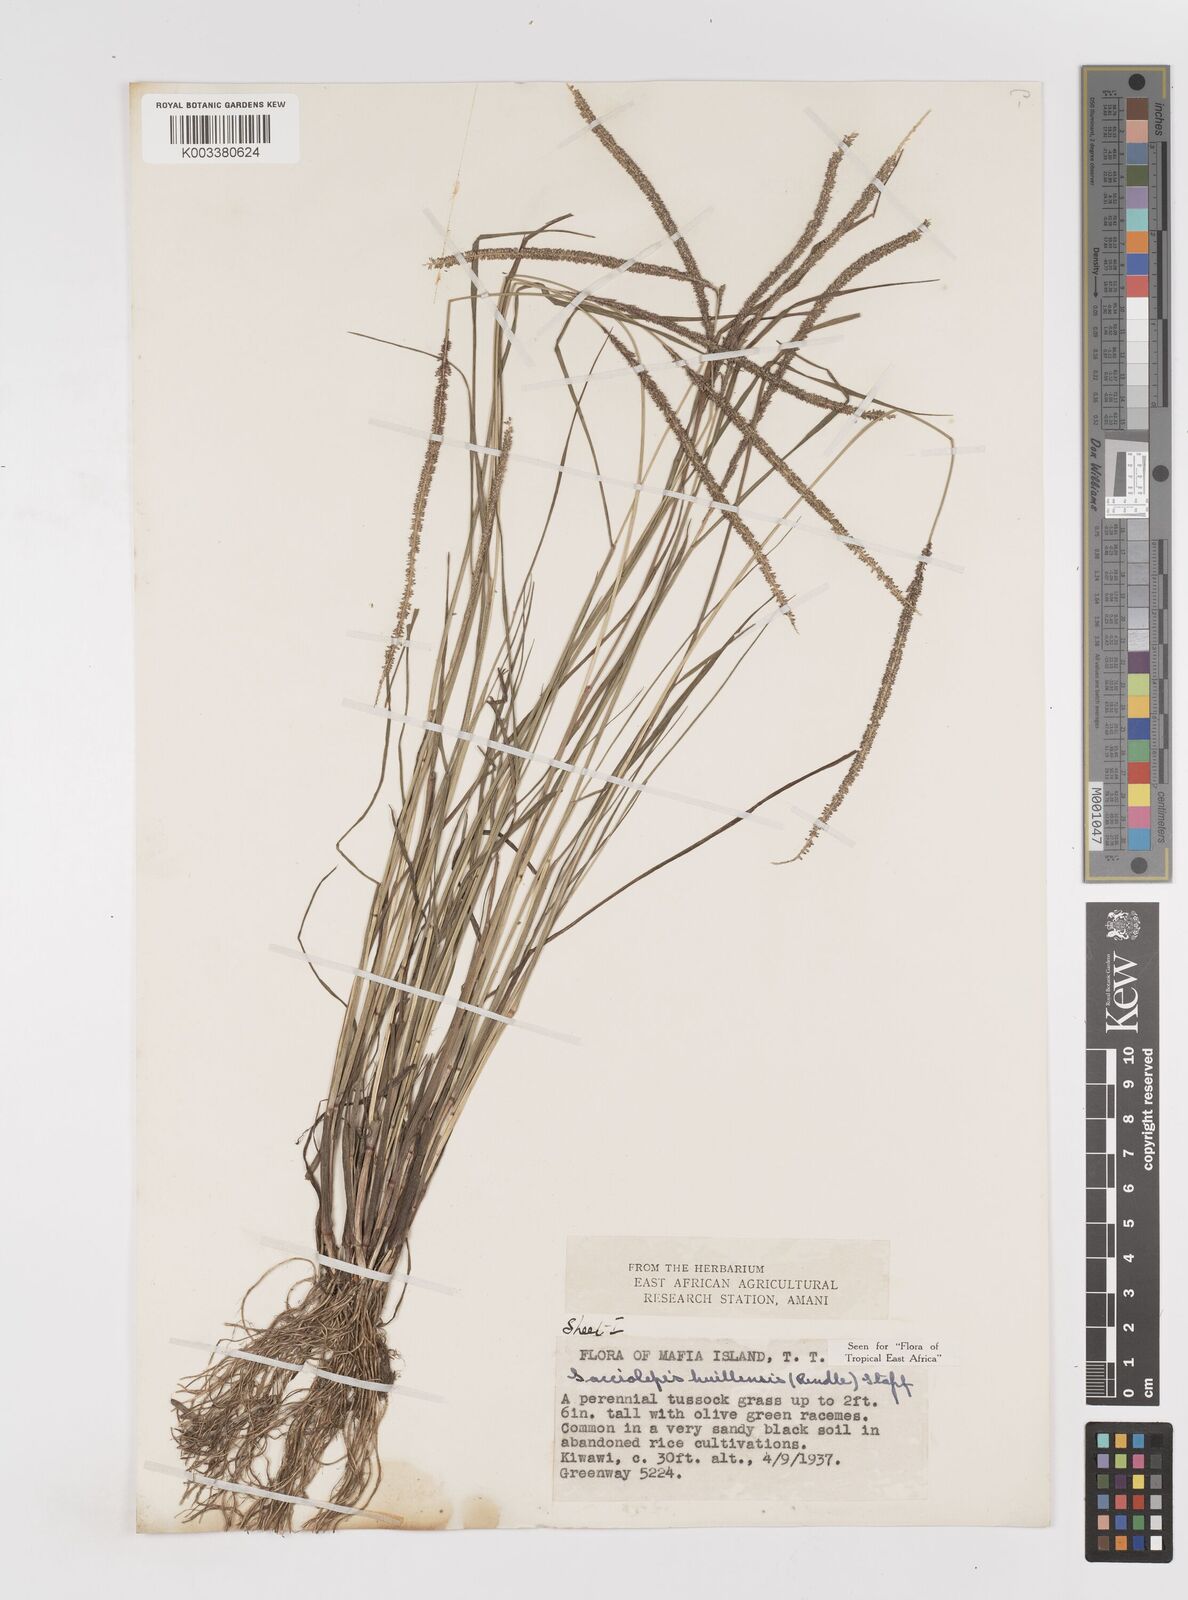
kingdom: Plantae
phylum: Tracheophyta
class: Liliopsida
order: Poales
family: Poaceae
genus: Sacciolepis
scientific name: Sacciolepis myosuroides
